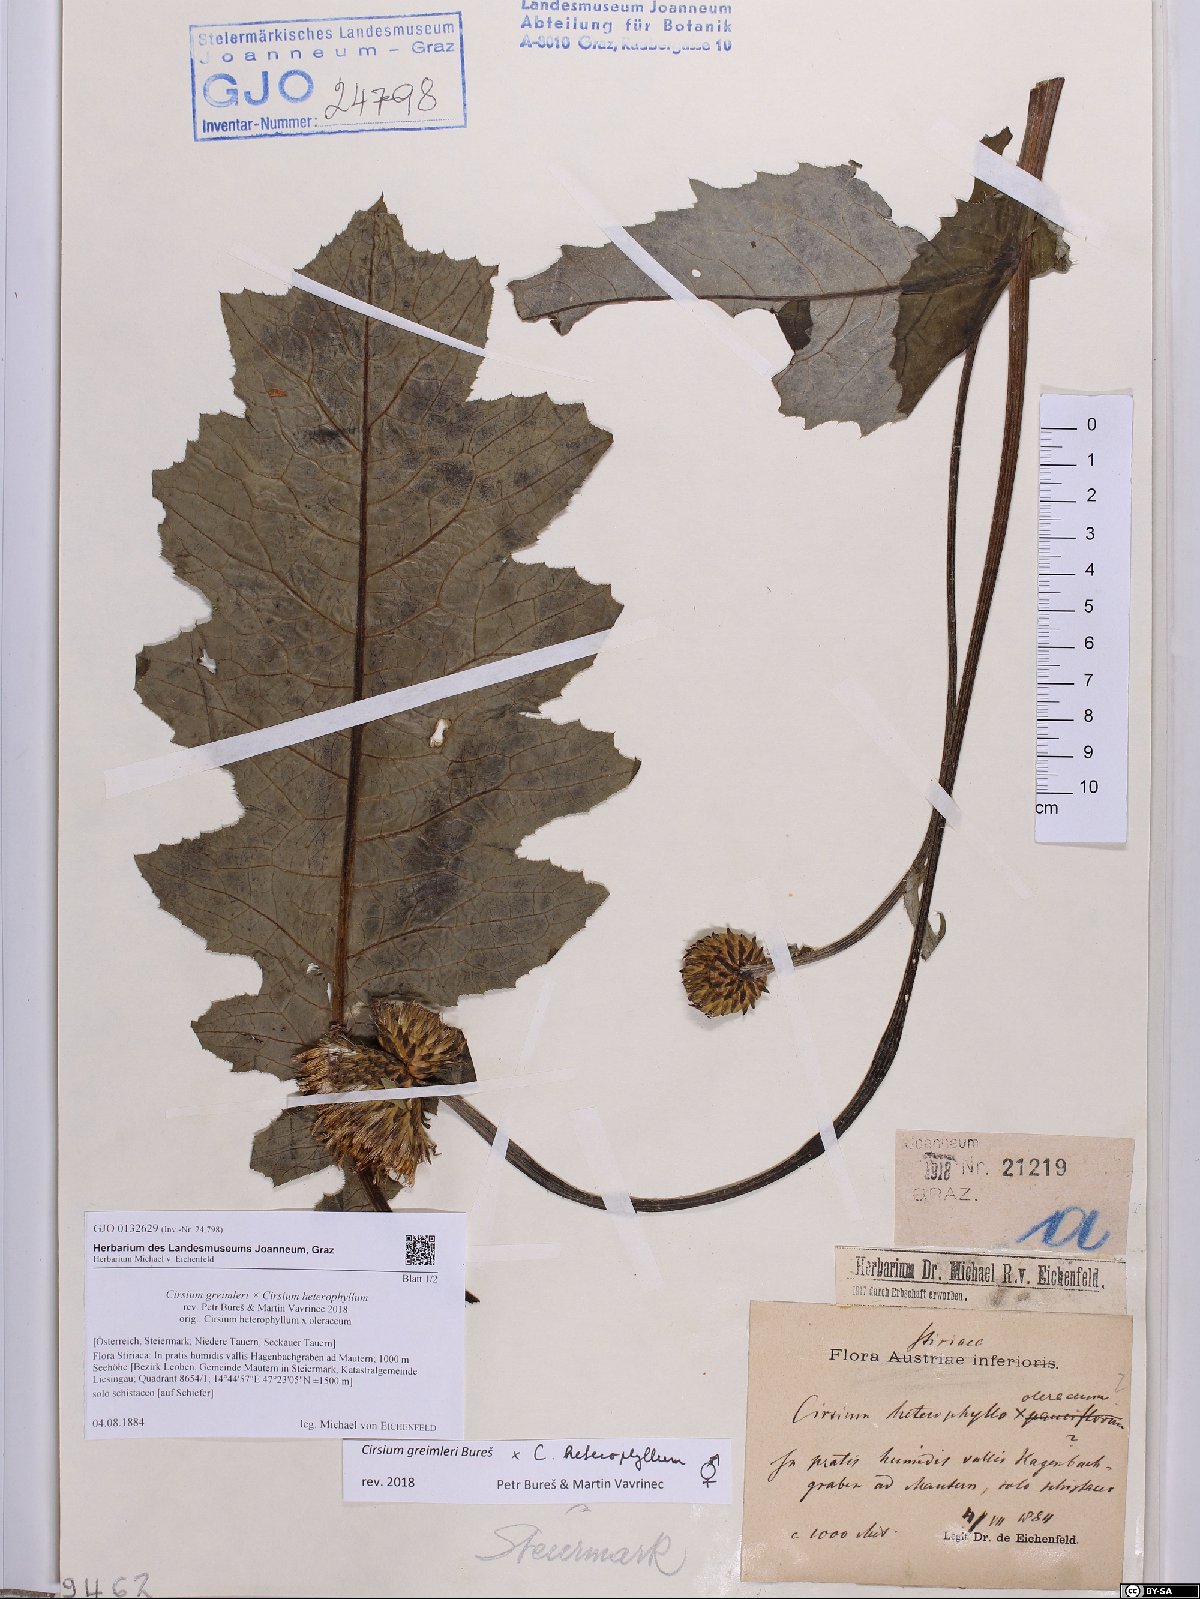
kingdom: Plantae
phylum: Tracheophyta
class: Magnoliopsida
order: Asterales
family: Asteraceae
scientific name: Asteraceae
